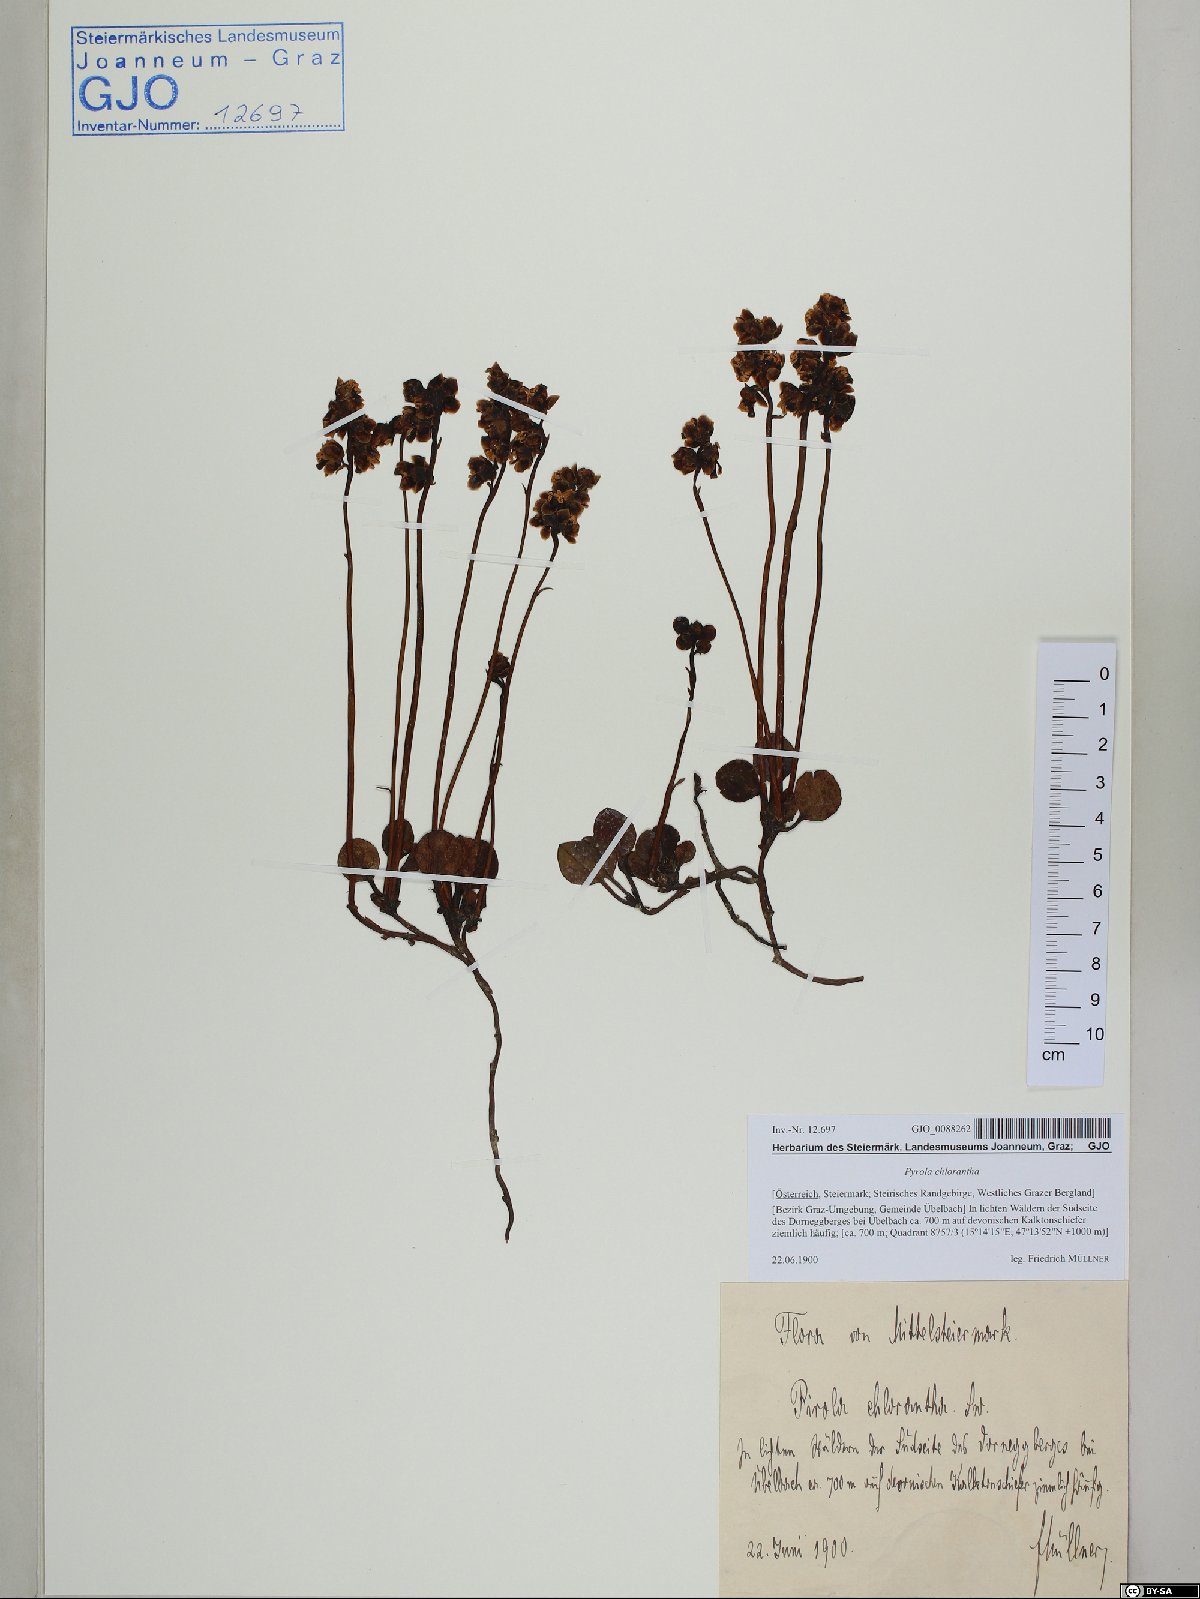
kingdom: Plantae
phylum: Tracheophyta
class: Magnoliopsida
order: Ericales
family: Ericaceae
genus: Pyrola
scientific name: Pyrola chlorantha
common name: Green wintergreen
